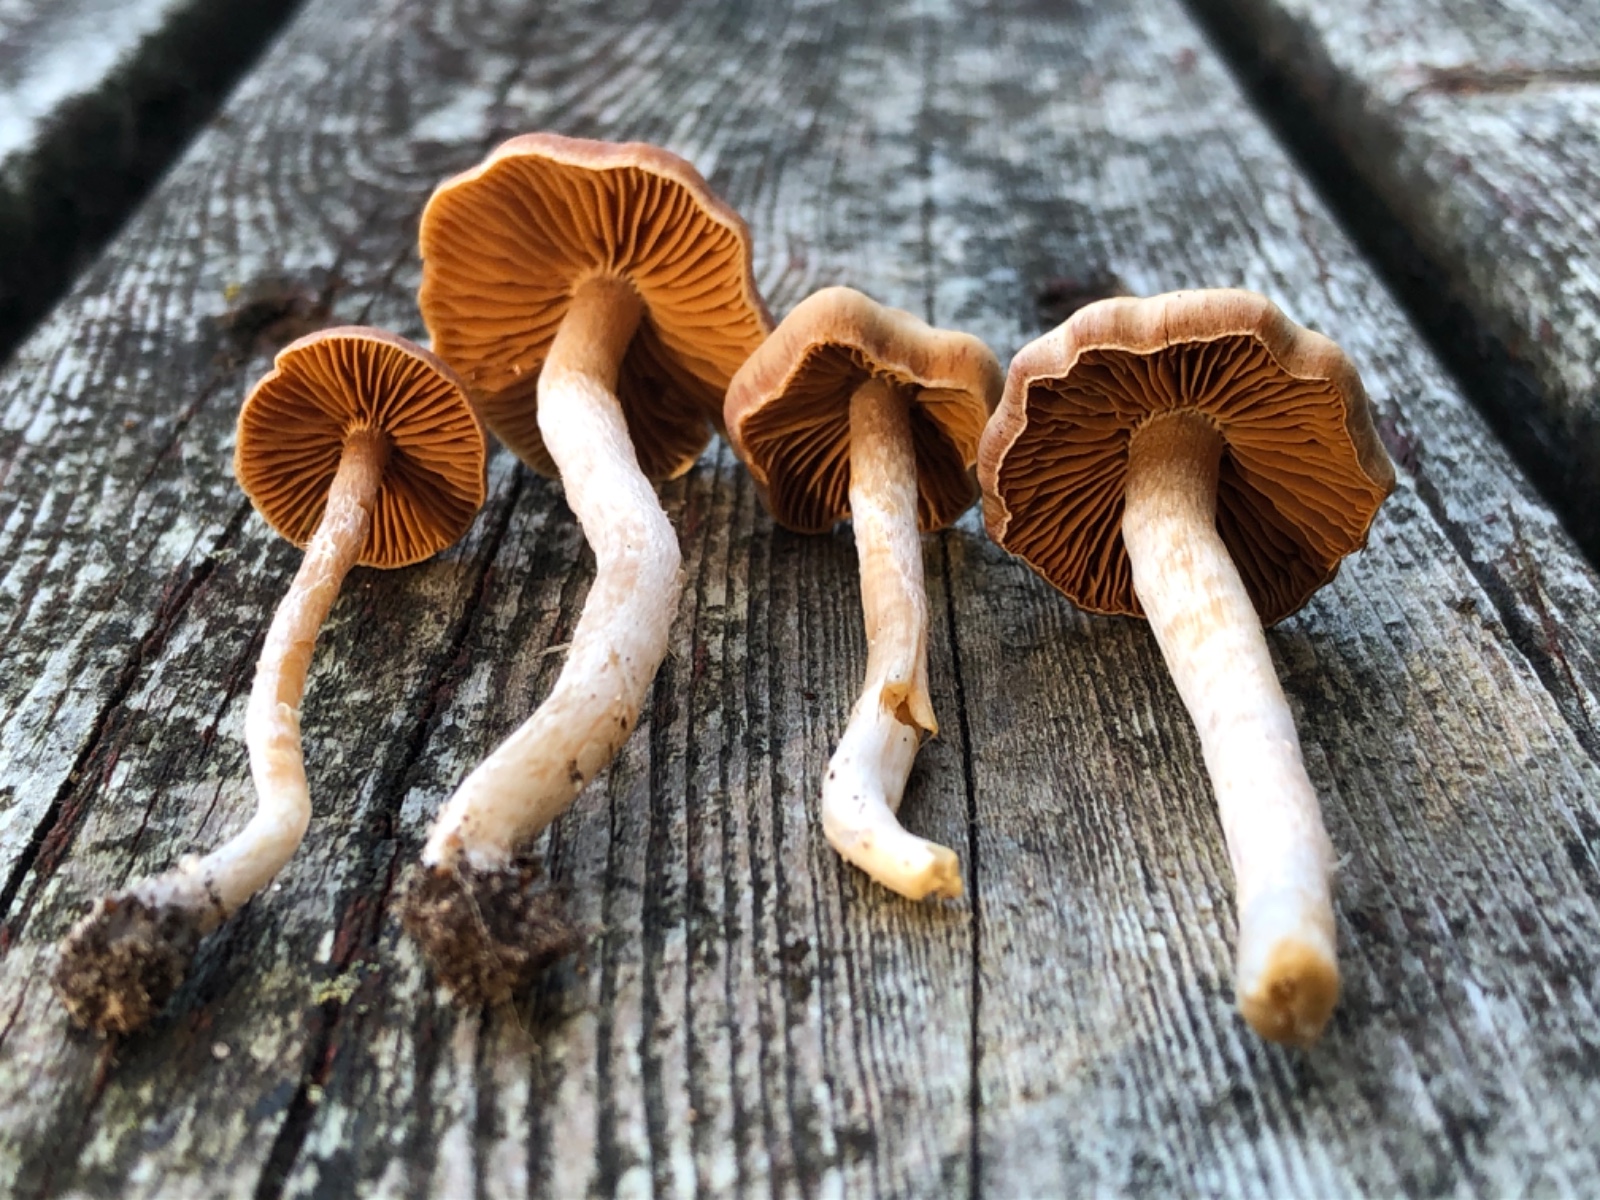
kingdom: Fungi
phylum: Basidiomycota
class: Agaricomycetes
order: Agaricales
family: Cortinariaceae
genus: Cortinarius
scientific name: Cortinarius
